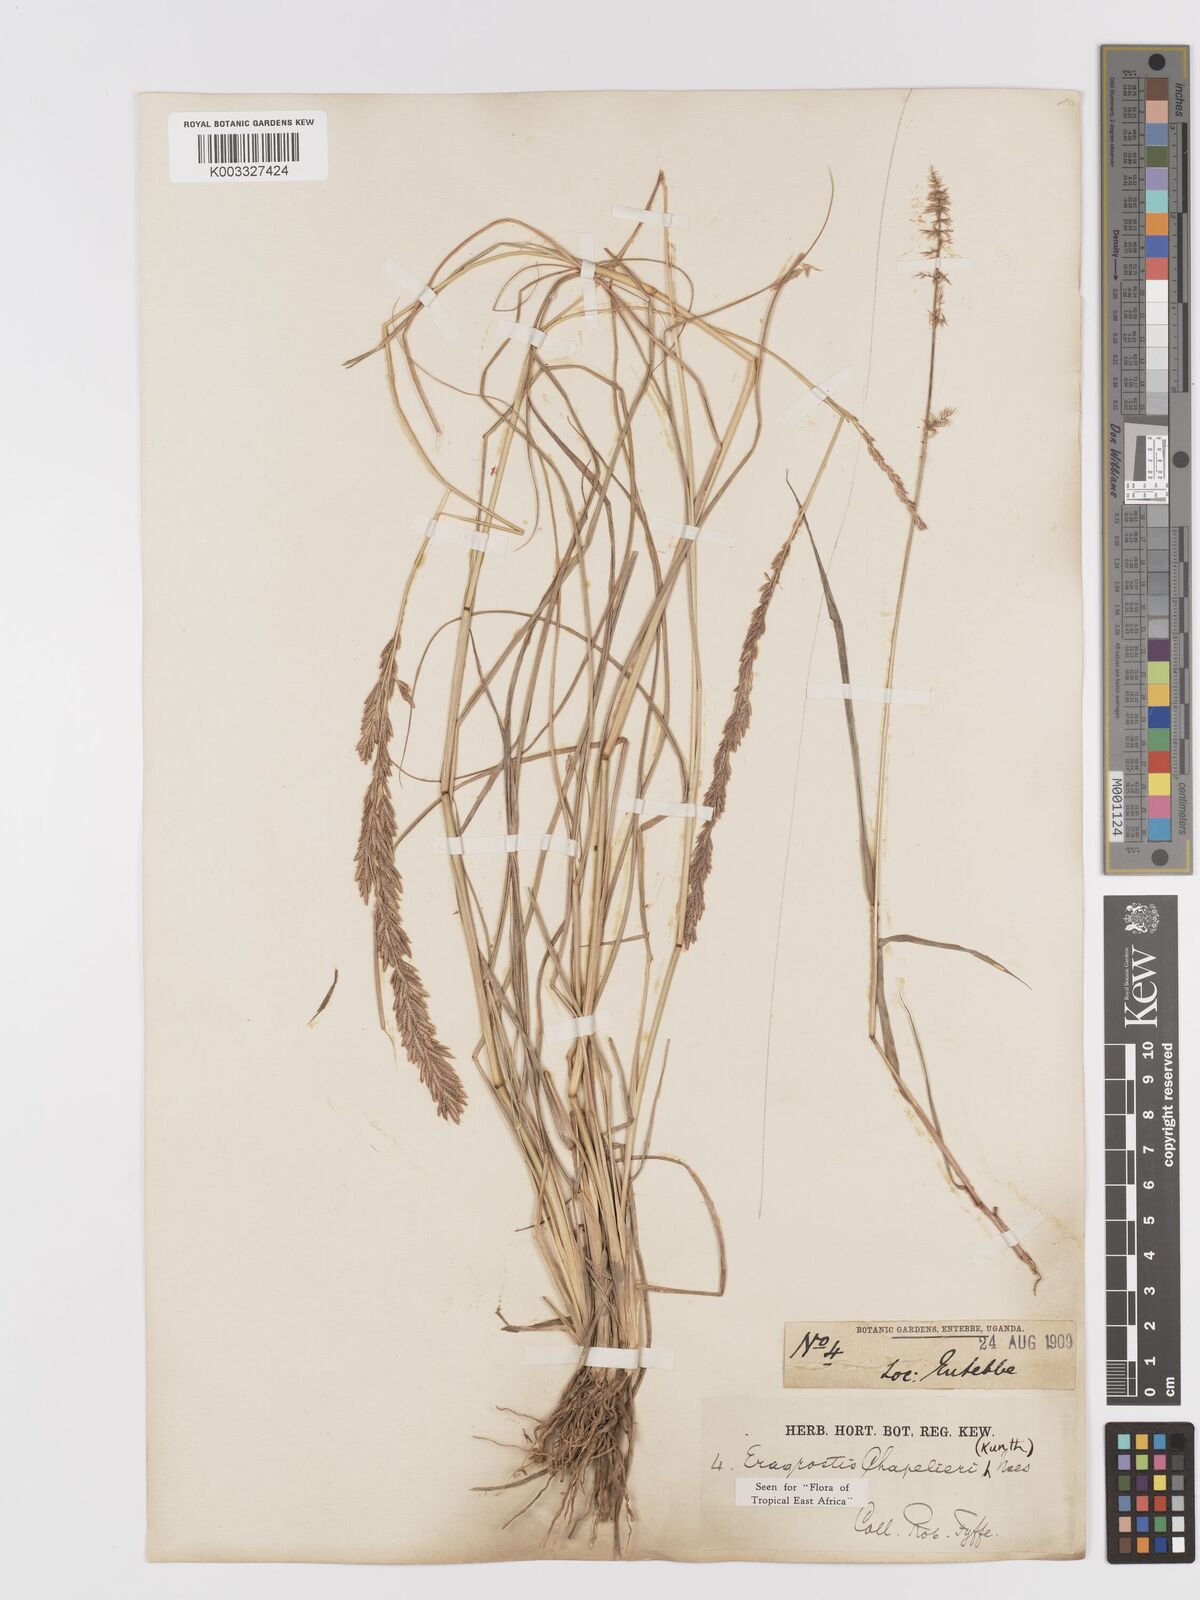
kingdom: Plantae
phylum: Tracheophyta
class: Liliopsida
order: Poales
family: Poaceae
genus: Eragrostis
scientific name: Eragrostis chapelieri
